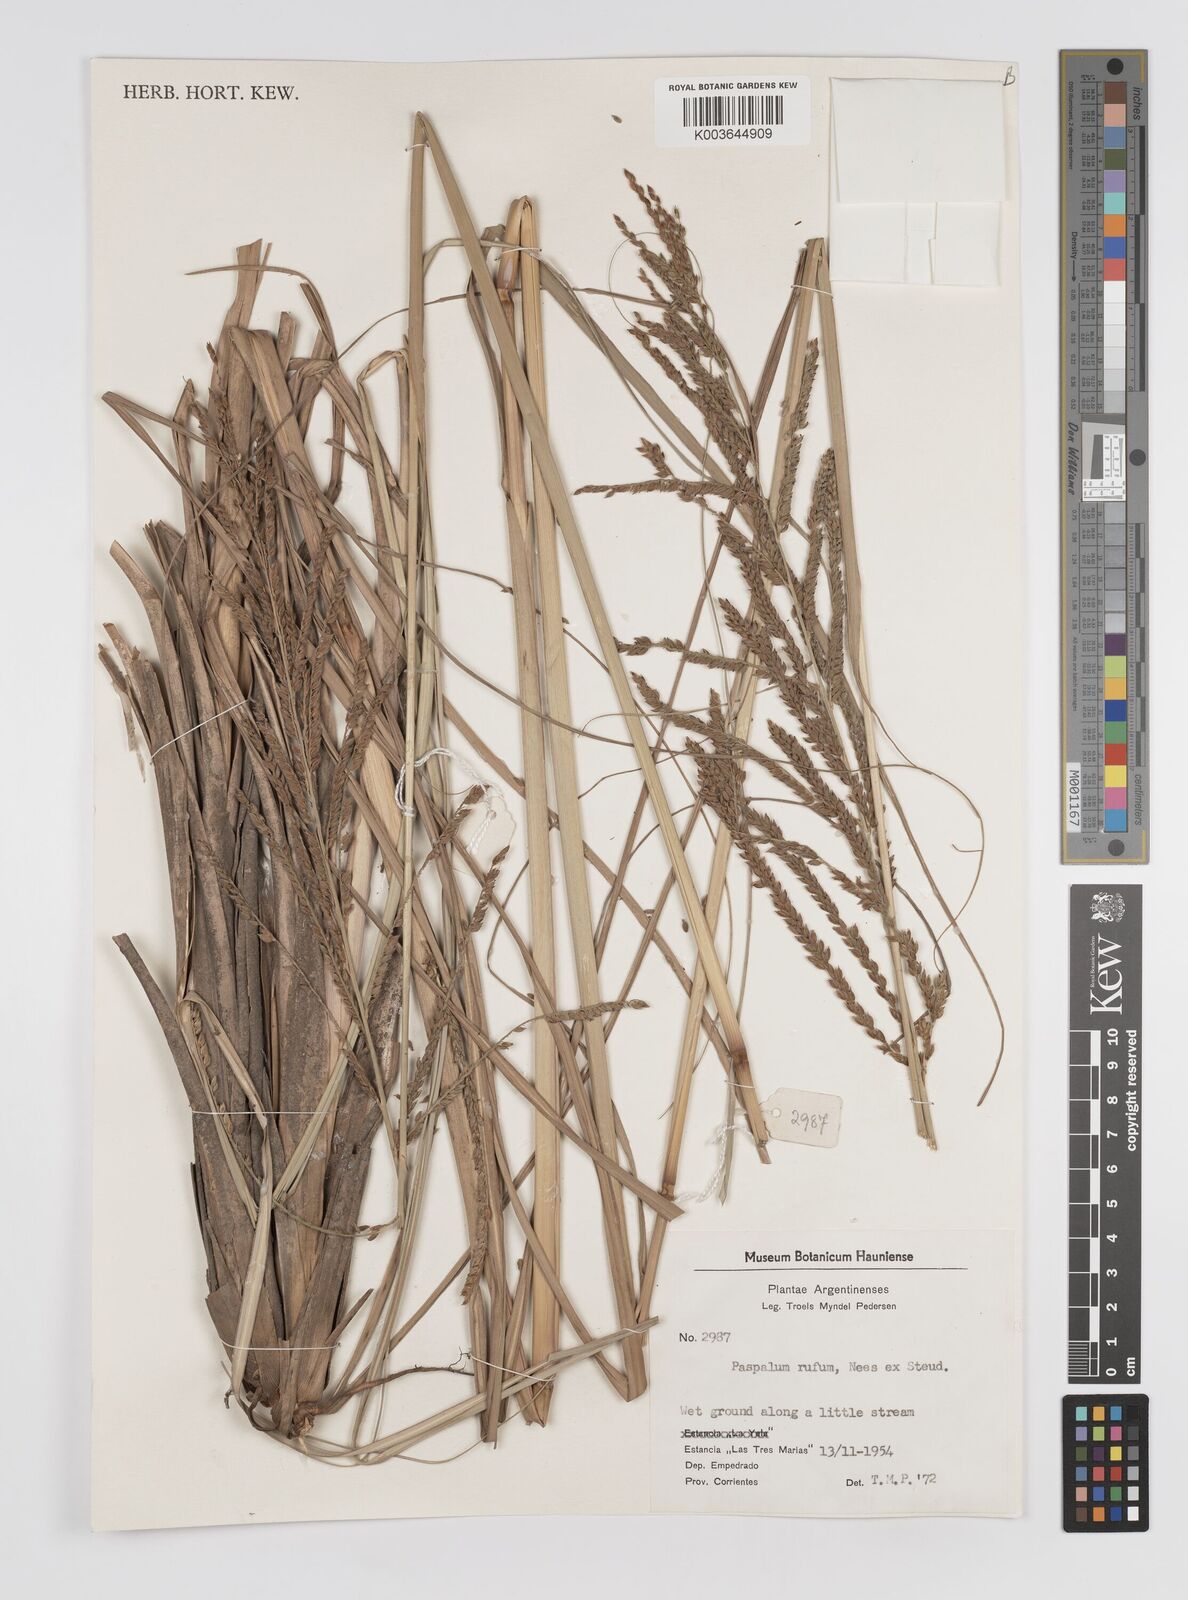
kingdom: Plantae
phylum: Tracheophyta
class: Liliopsida
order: Poales
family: Poaceae
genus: Paspalum
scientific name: Paspalum rufum
